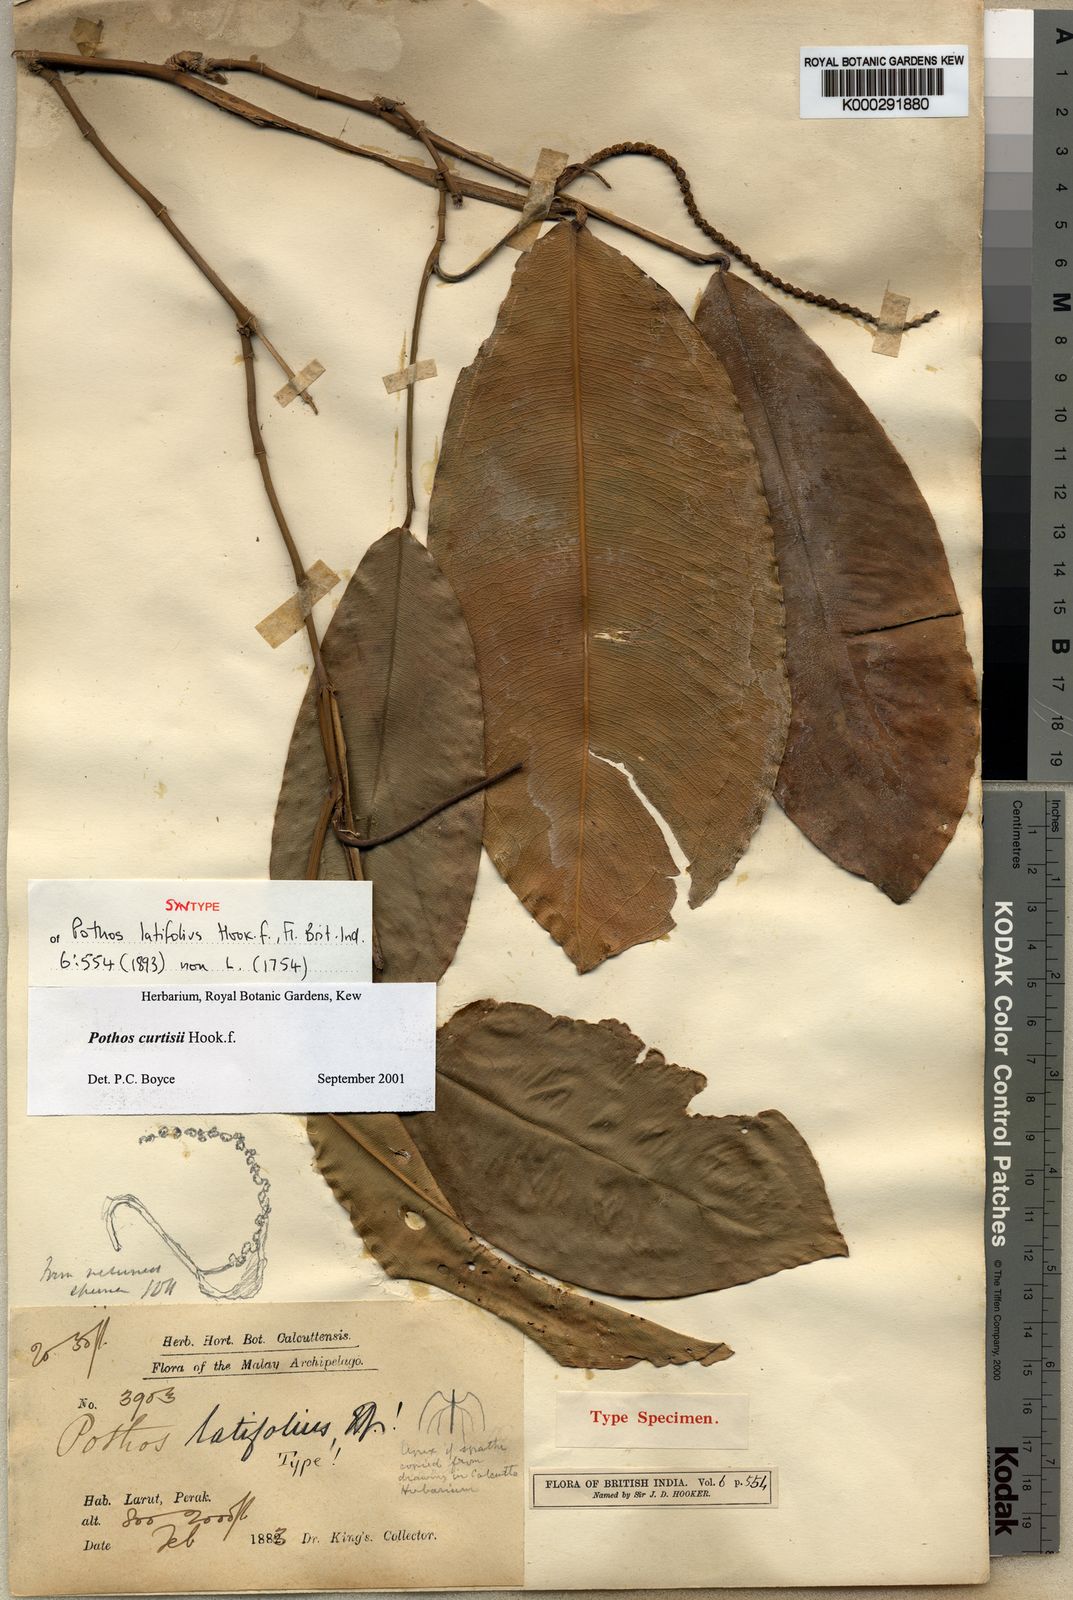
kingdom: Plantae
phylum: Tracheophyta
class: Liliopsida
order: Alismatales
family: Araceae
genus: Pothos
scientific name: Pothos curtisii
